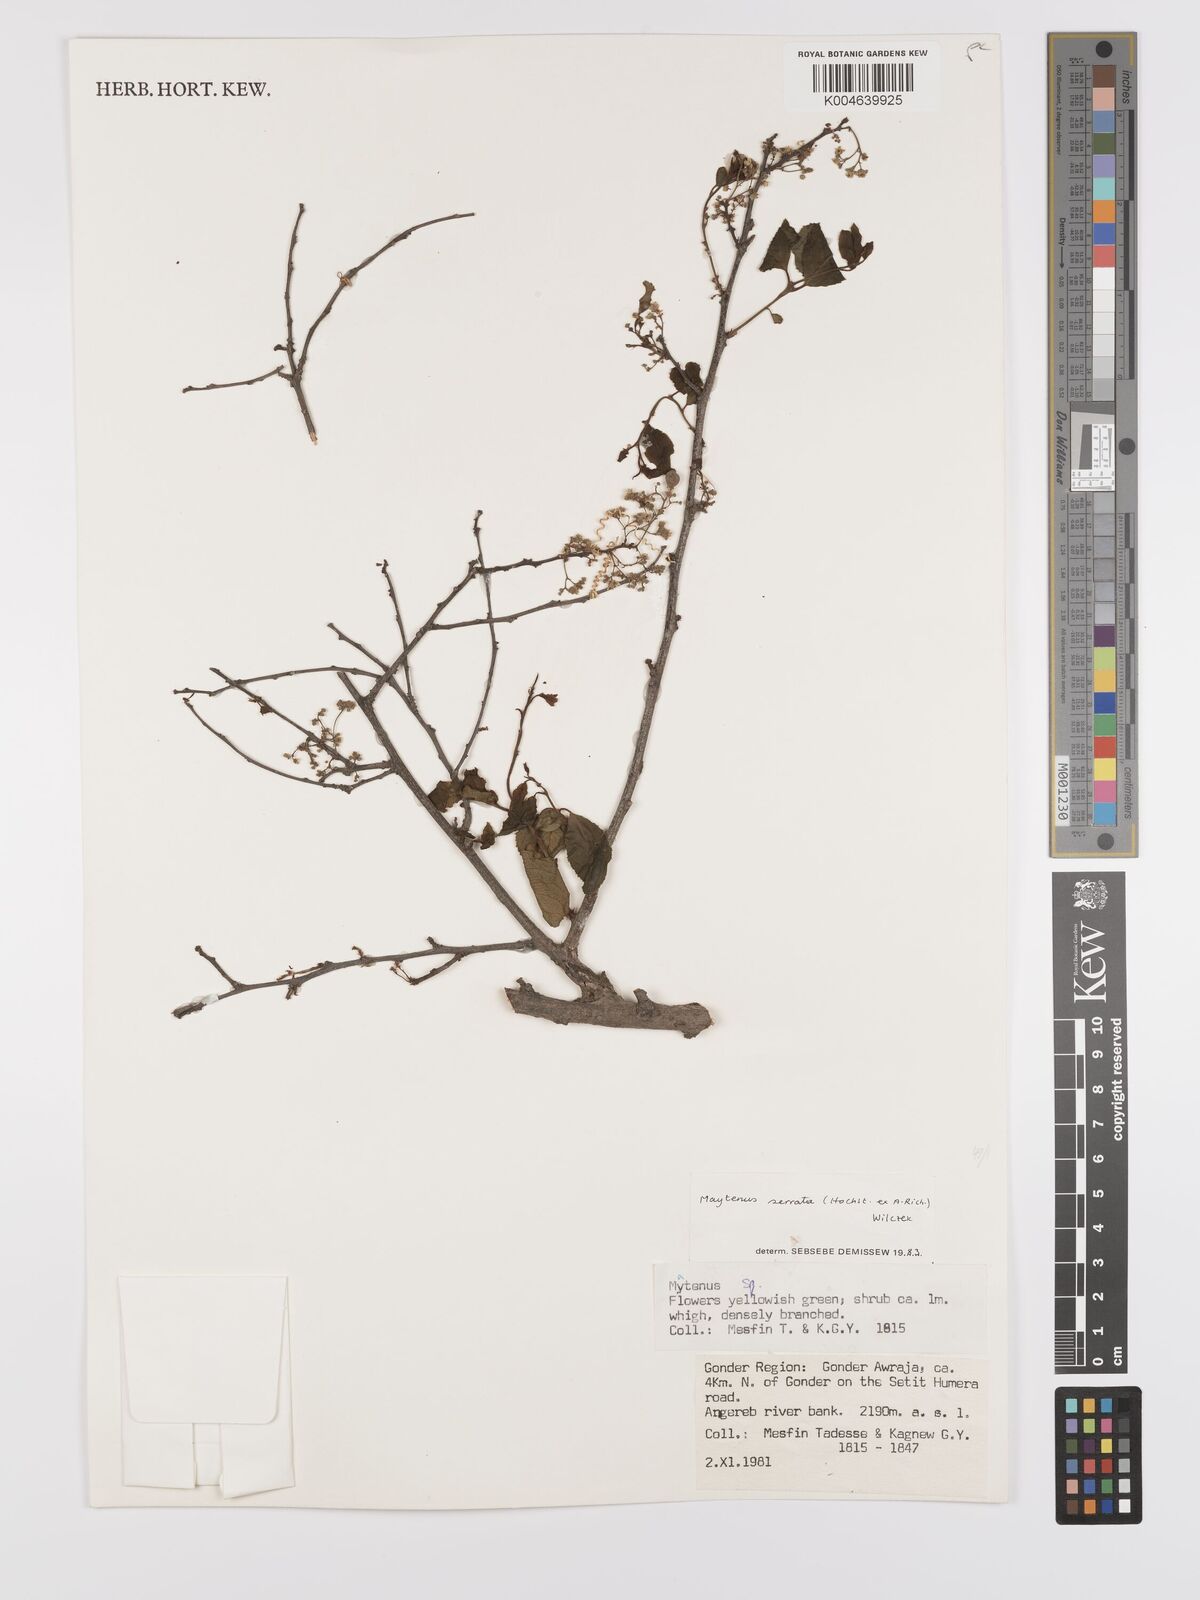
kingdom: Plantae
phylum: Tracheophyta
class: Magnoliopsida
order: Celastrales
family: Celastraceae
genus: Gymnosporia
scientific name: Gymnosporia serrata
